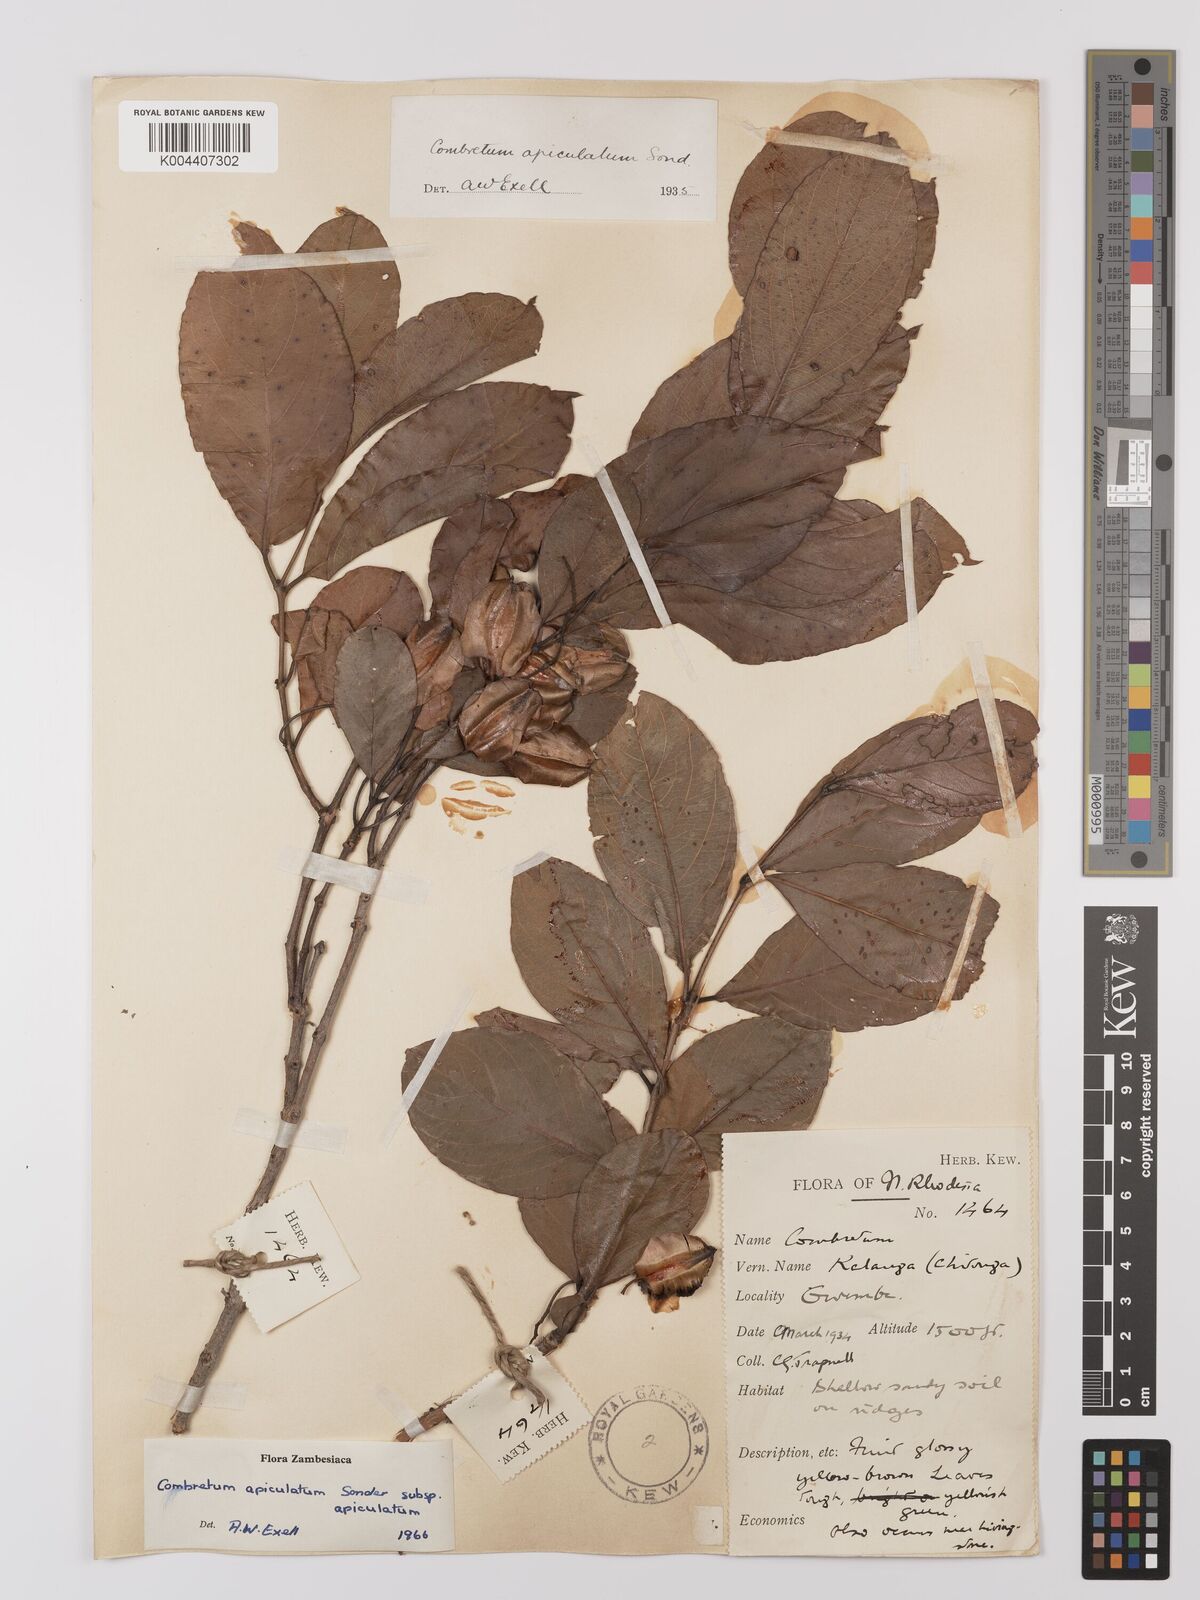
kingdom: Plantae
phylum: Tracheophyta
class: Magnoliopsida
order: Myrtales
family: Combretaceae
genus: Combretum
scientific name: Combretum apiculatum
